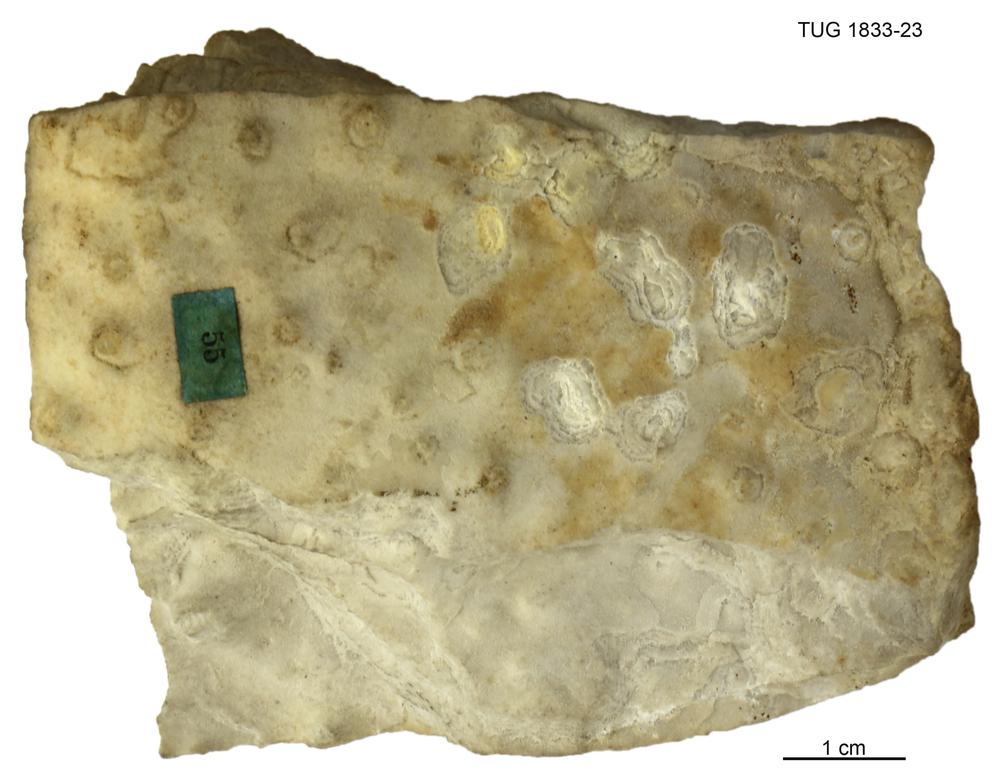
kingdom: Animalia
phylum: Porifera
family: Clathrodictyidae
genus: Clathrodictyon
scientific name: Clathrodictyon mammillatum
